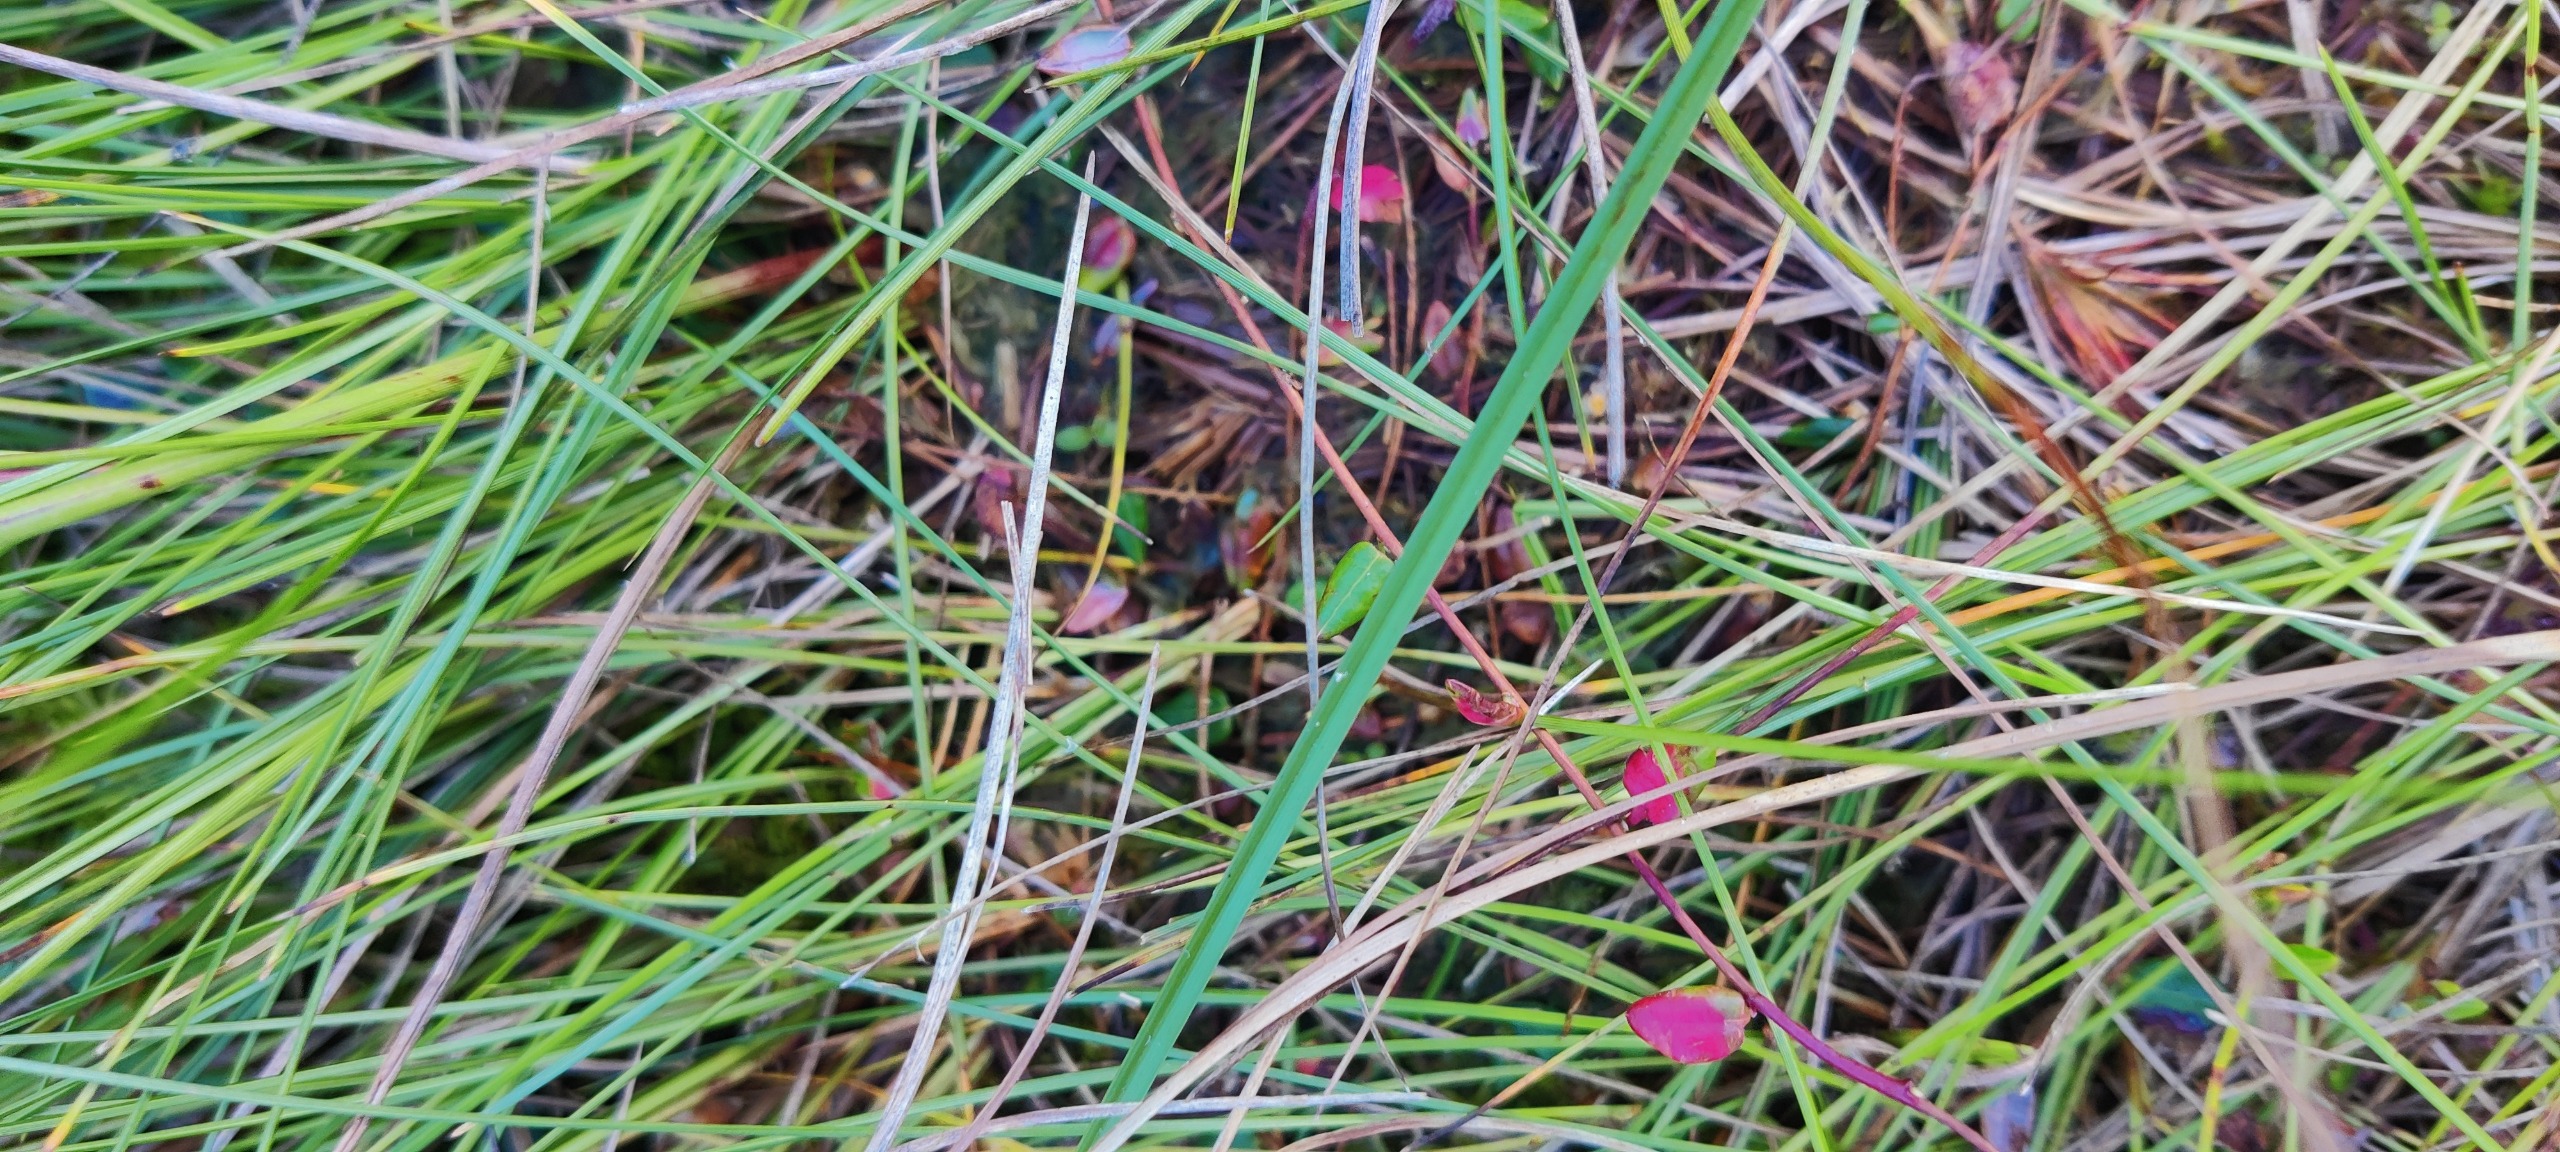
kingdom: Plantae
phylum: Tracheophyta
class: Magnoliopsida
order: Ericales
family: Ericaceae
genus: Vaccinium
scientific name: Vaccinium oxycoccos
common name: Tranebær
